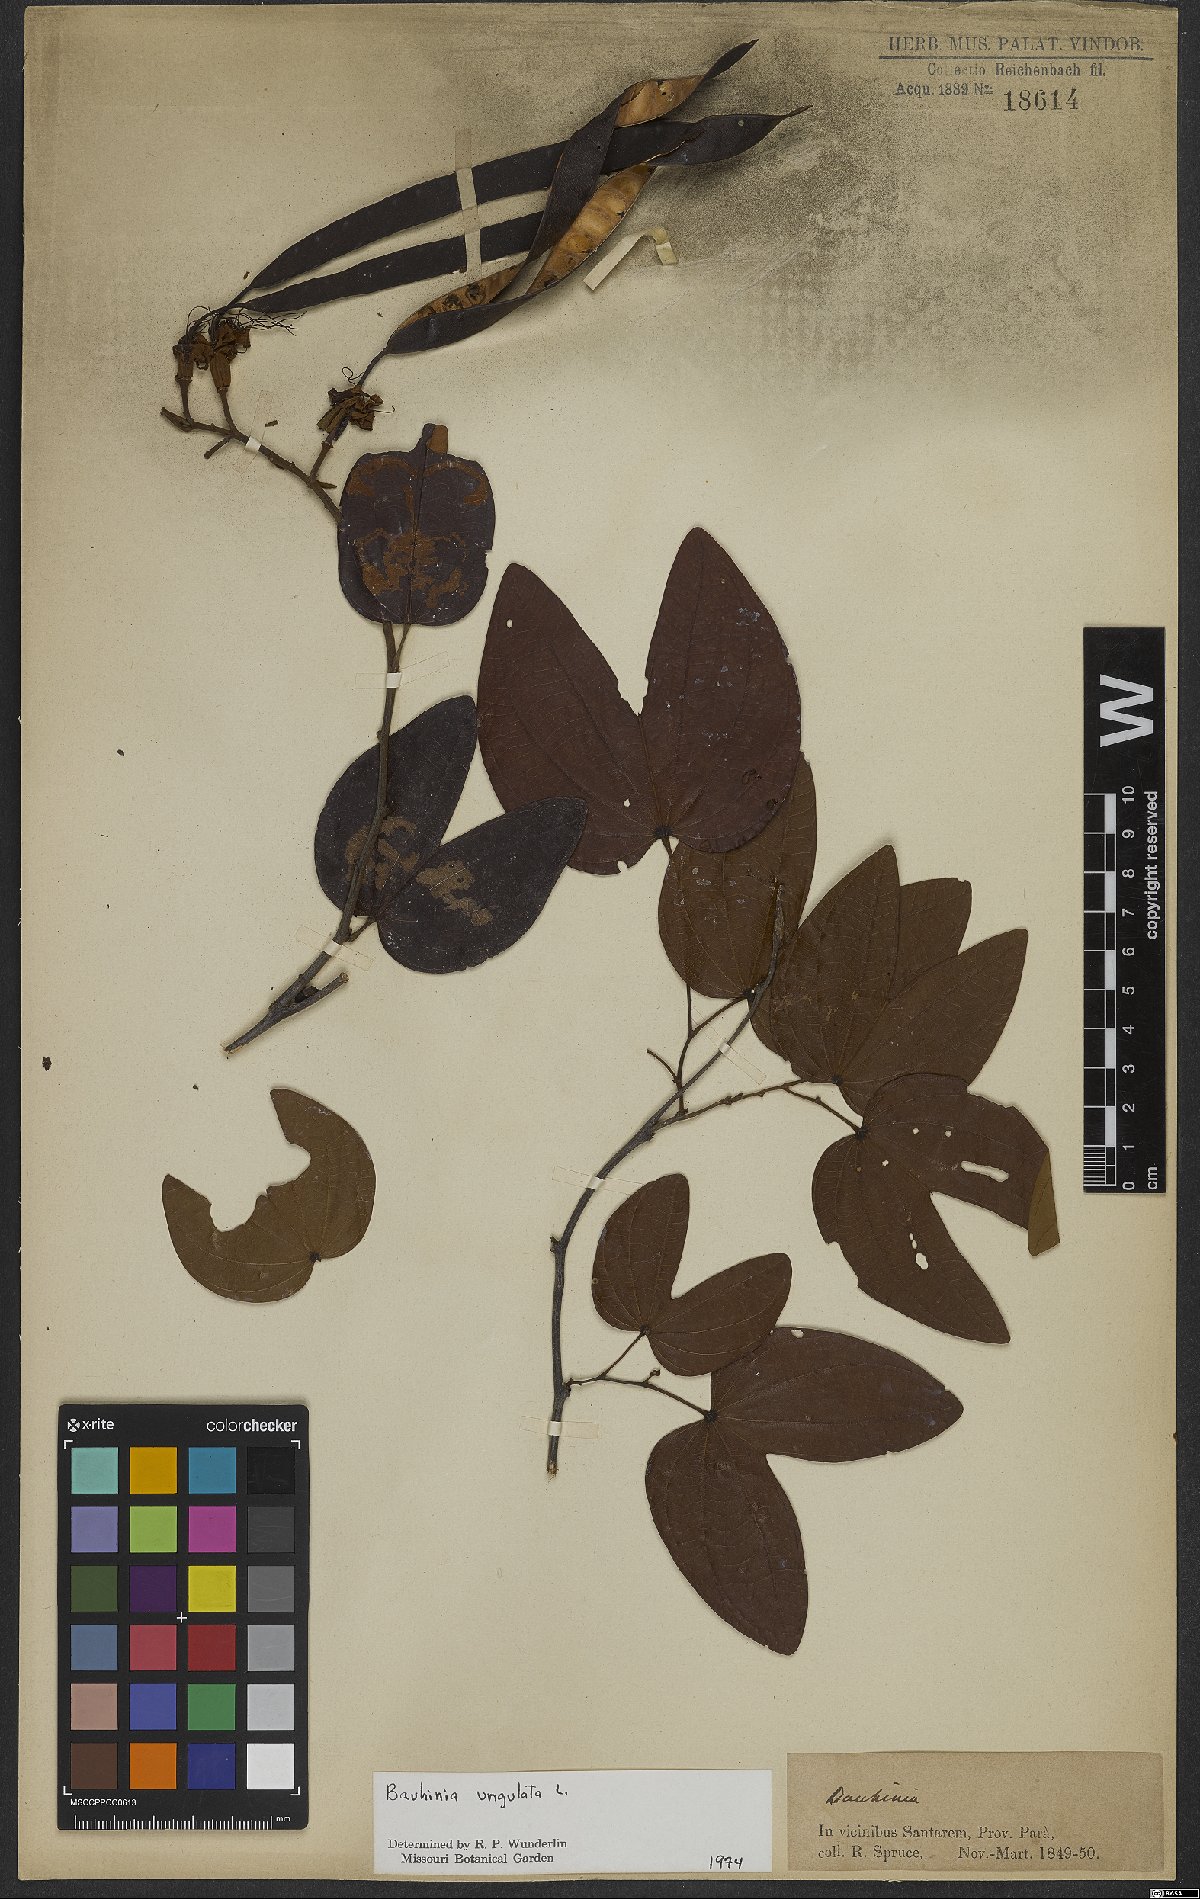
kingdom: Plantae
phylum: Tracheophyta
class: Magnoliopsida
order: Fabales
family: Fabaceae
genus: Bauhinia
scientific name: Bauhinia ungulata
